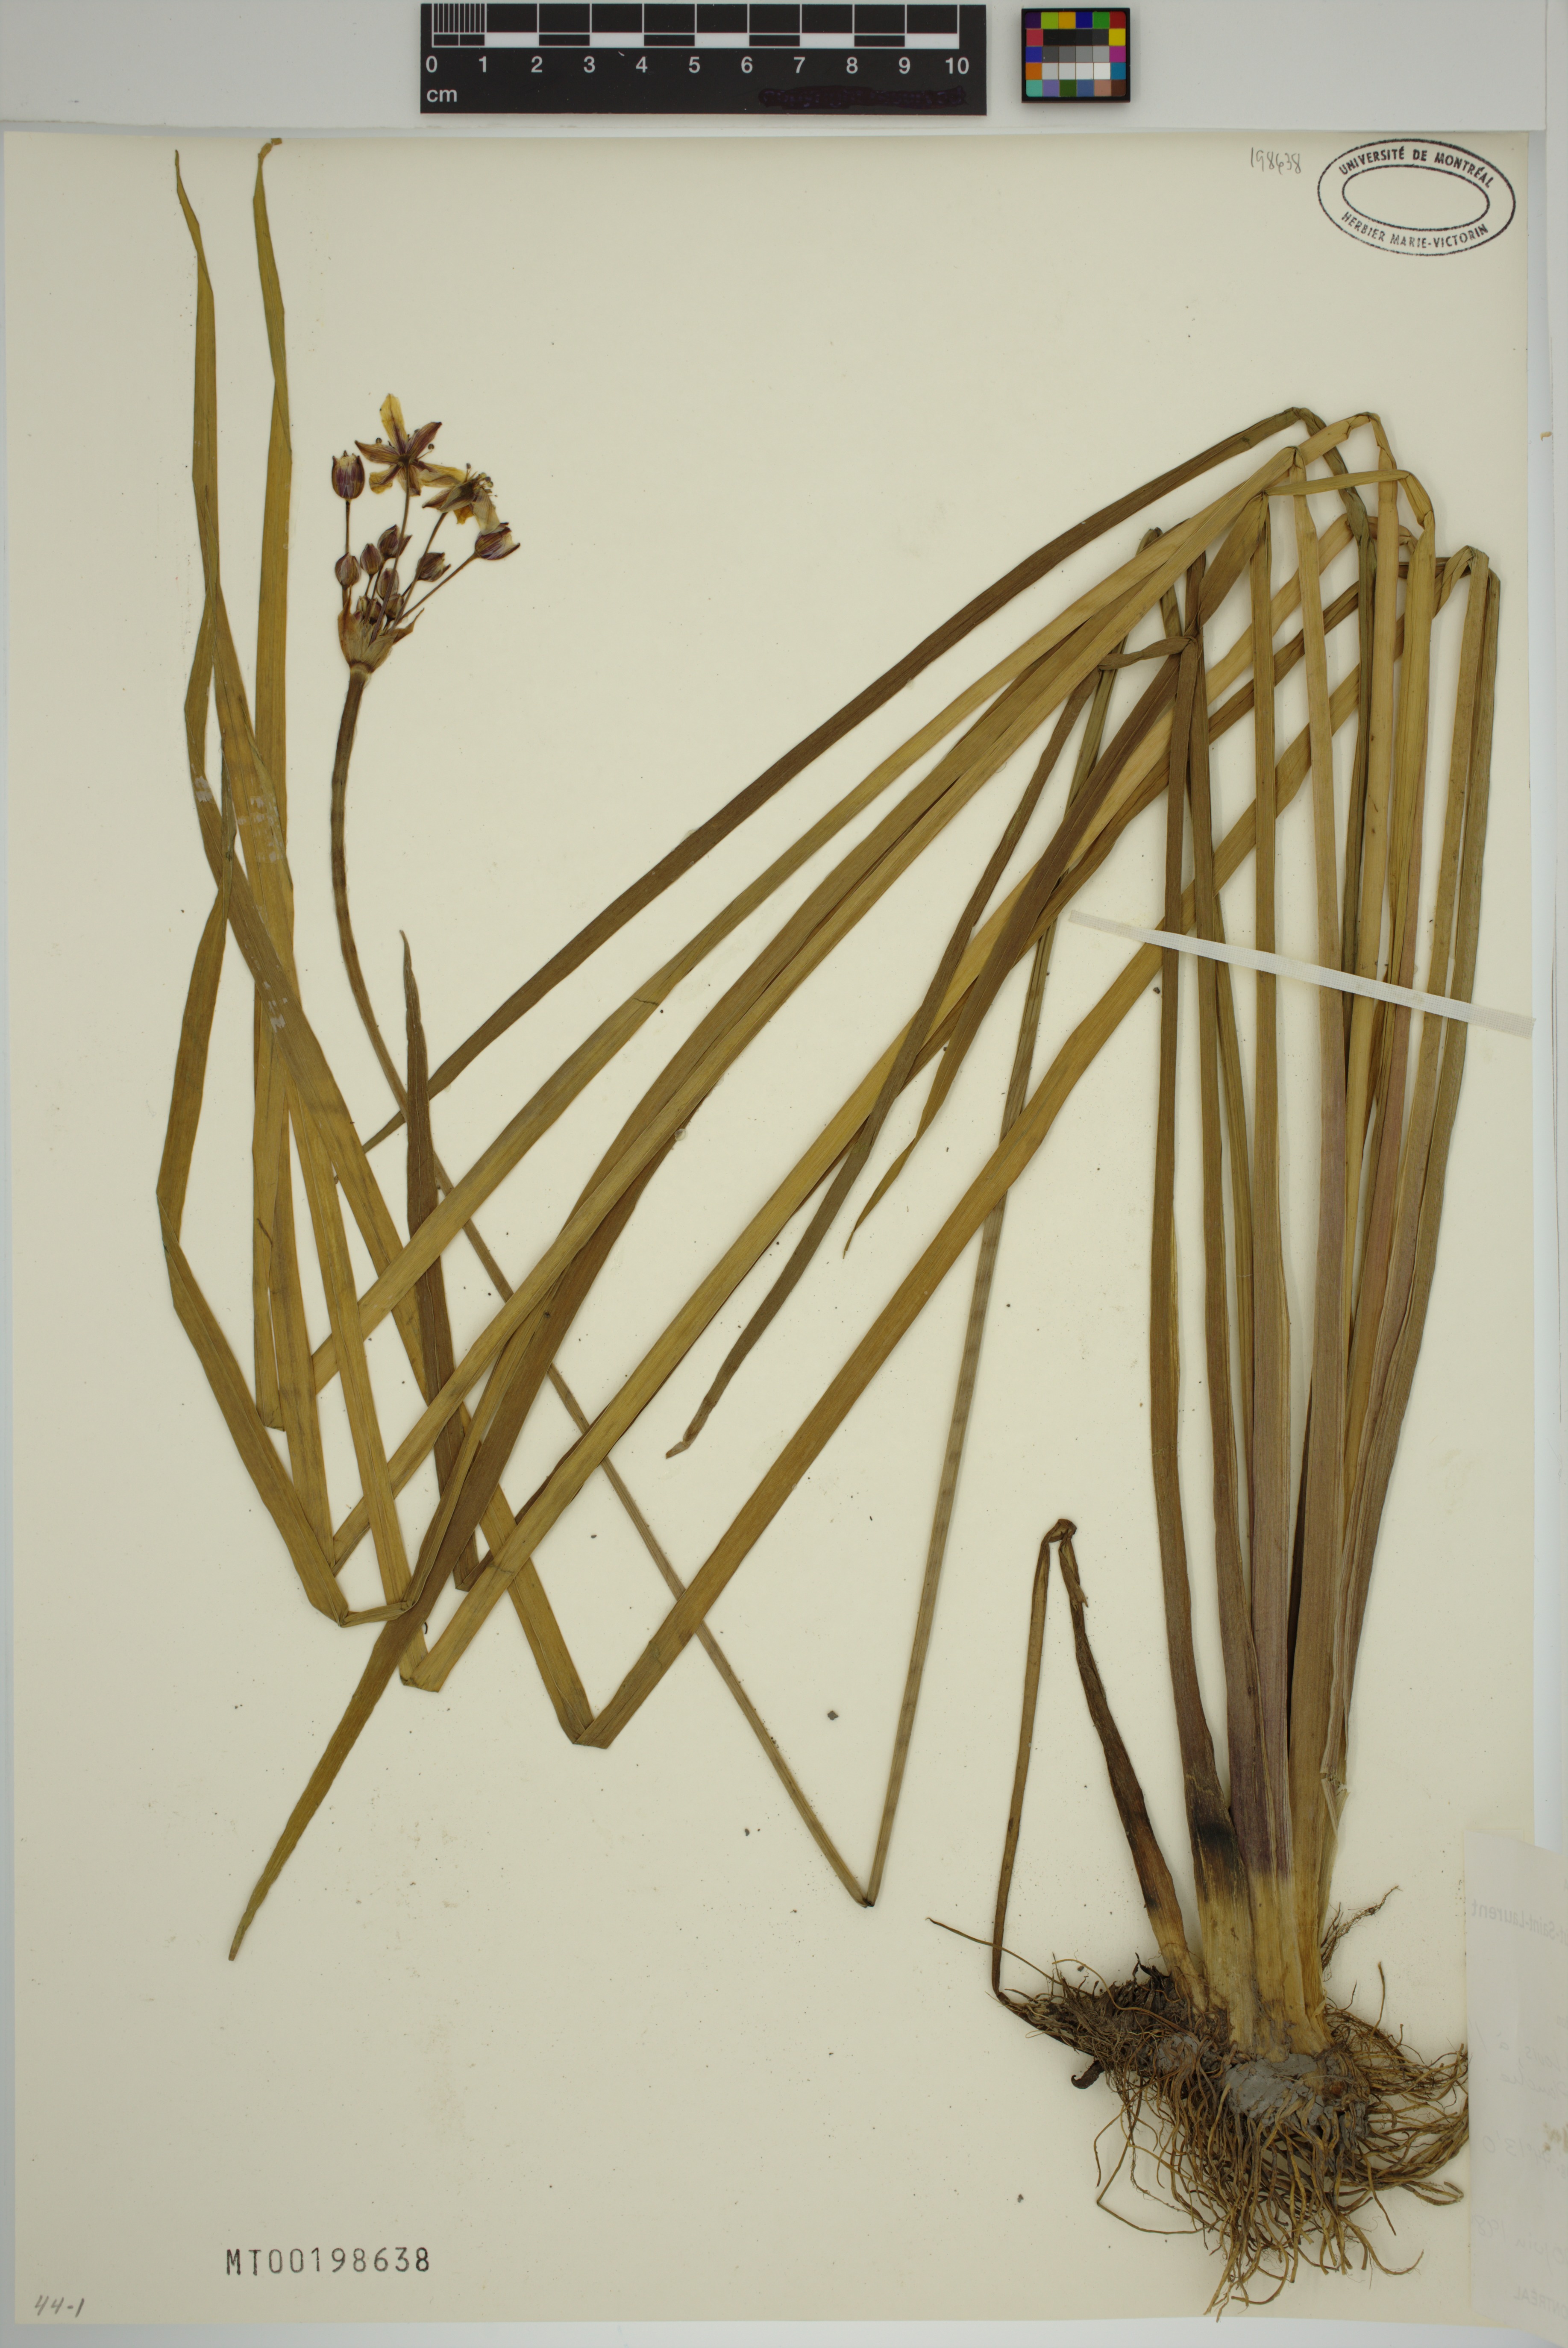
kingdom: Plantae
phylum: Tracheophyta
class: Liliopsida
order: Alismatales
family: Butomaceae
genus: Butomus
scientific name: Butomus umbellatus
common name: Flowering-rush
